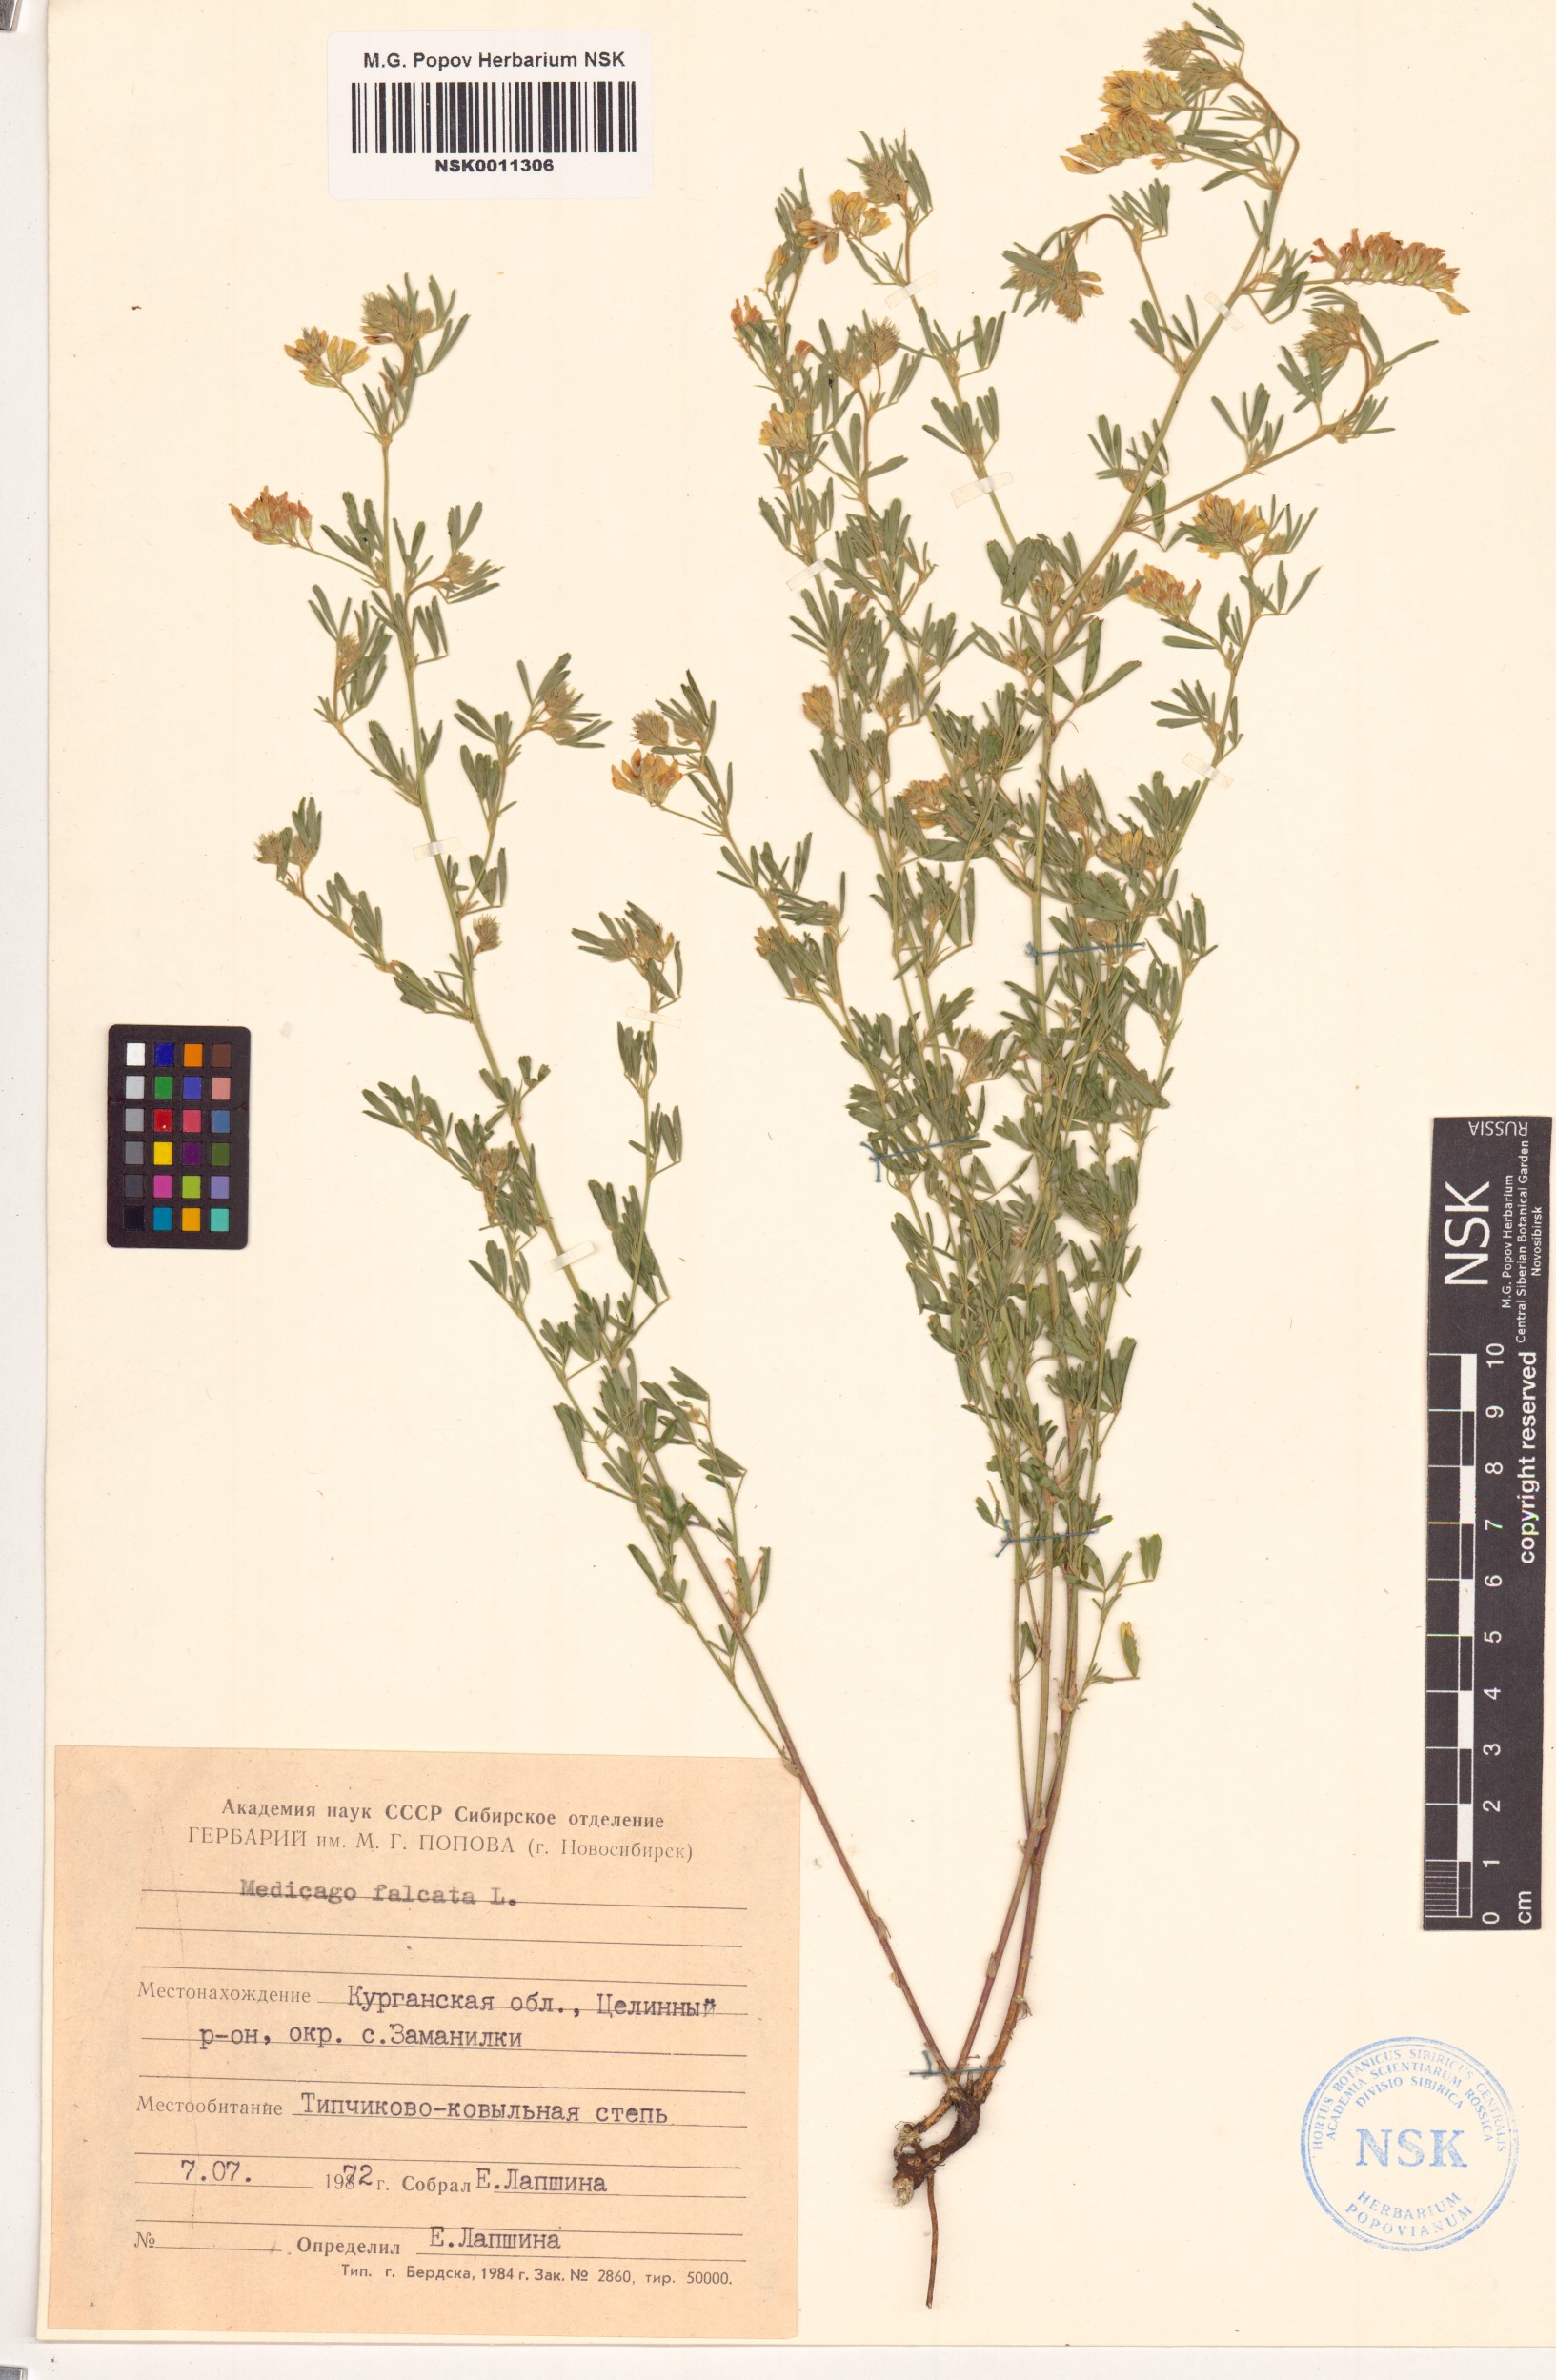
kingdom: Plantae
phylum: Tracheophyta
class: Magnoliopsida
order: Fabales
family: Fabaceae
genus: Medicago
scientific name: Medicago falcata
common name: Sickle medick
